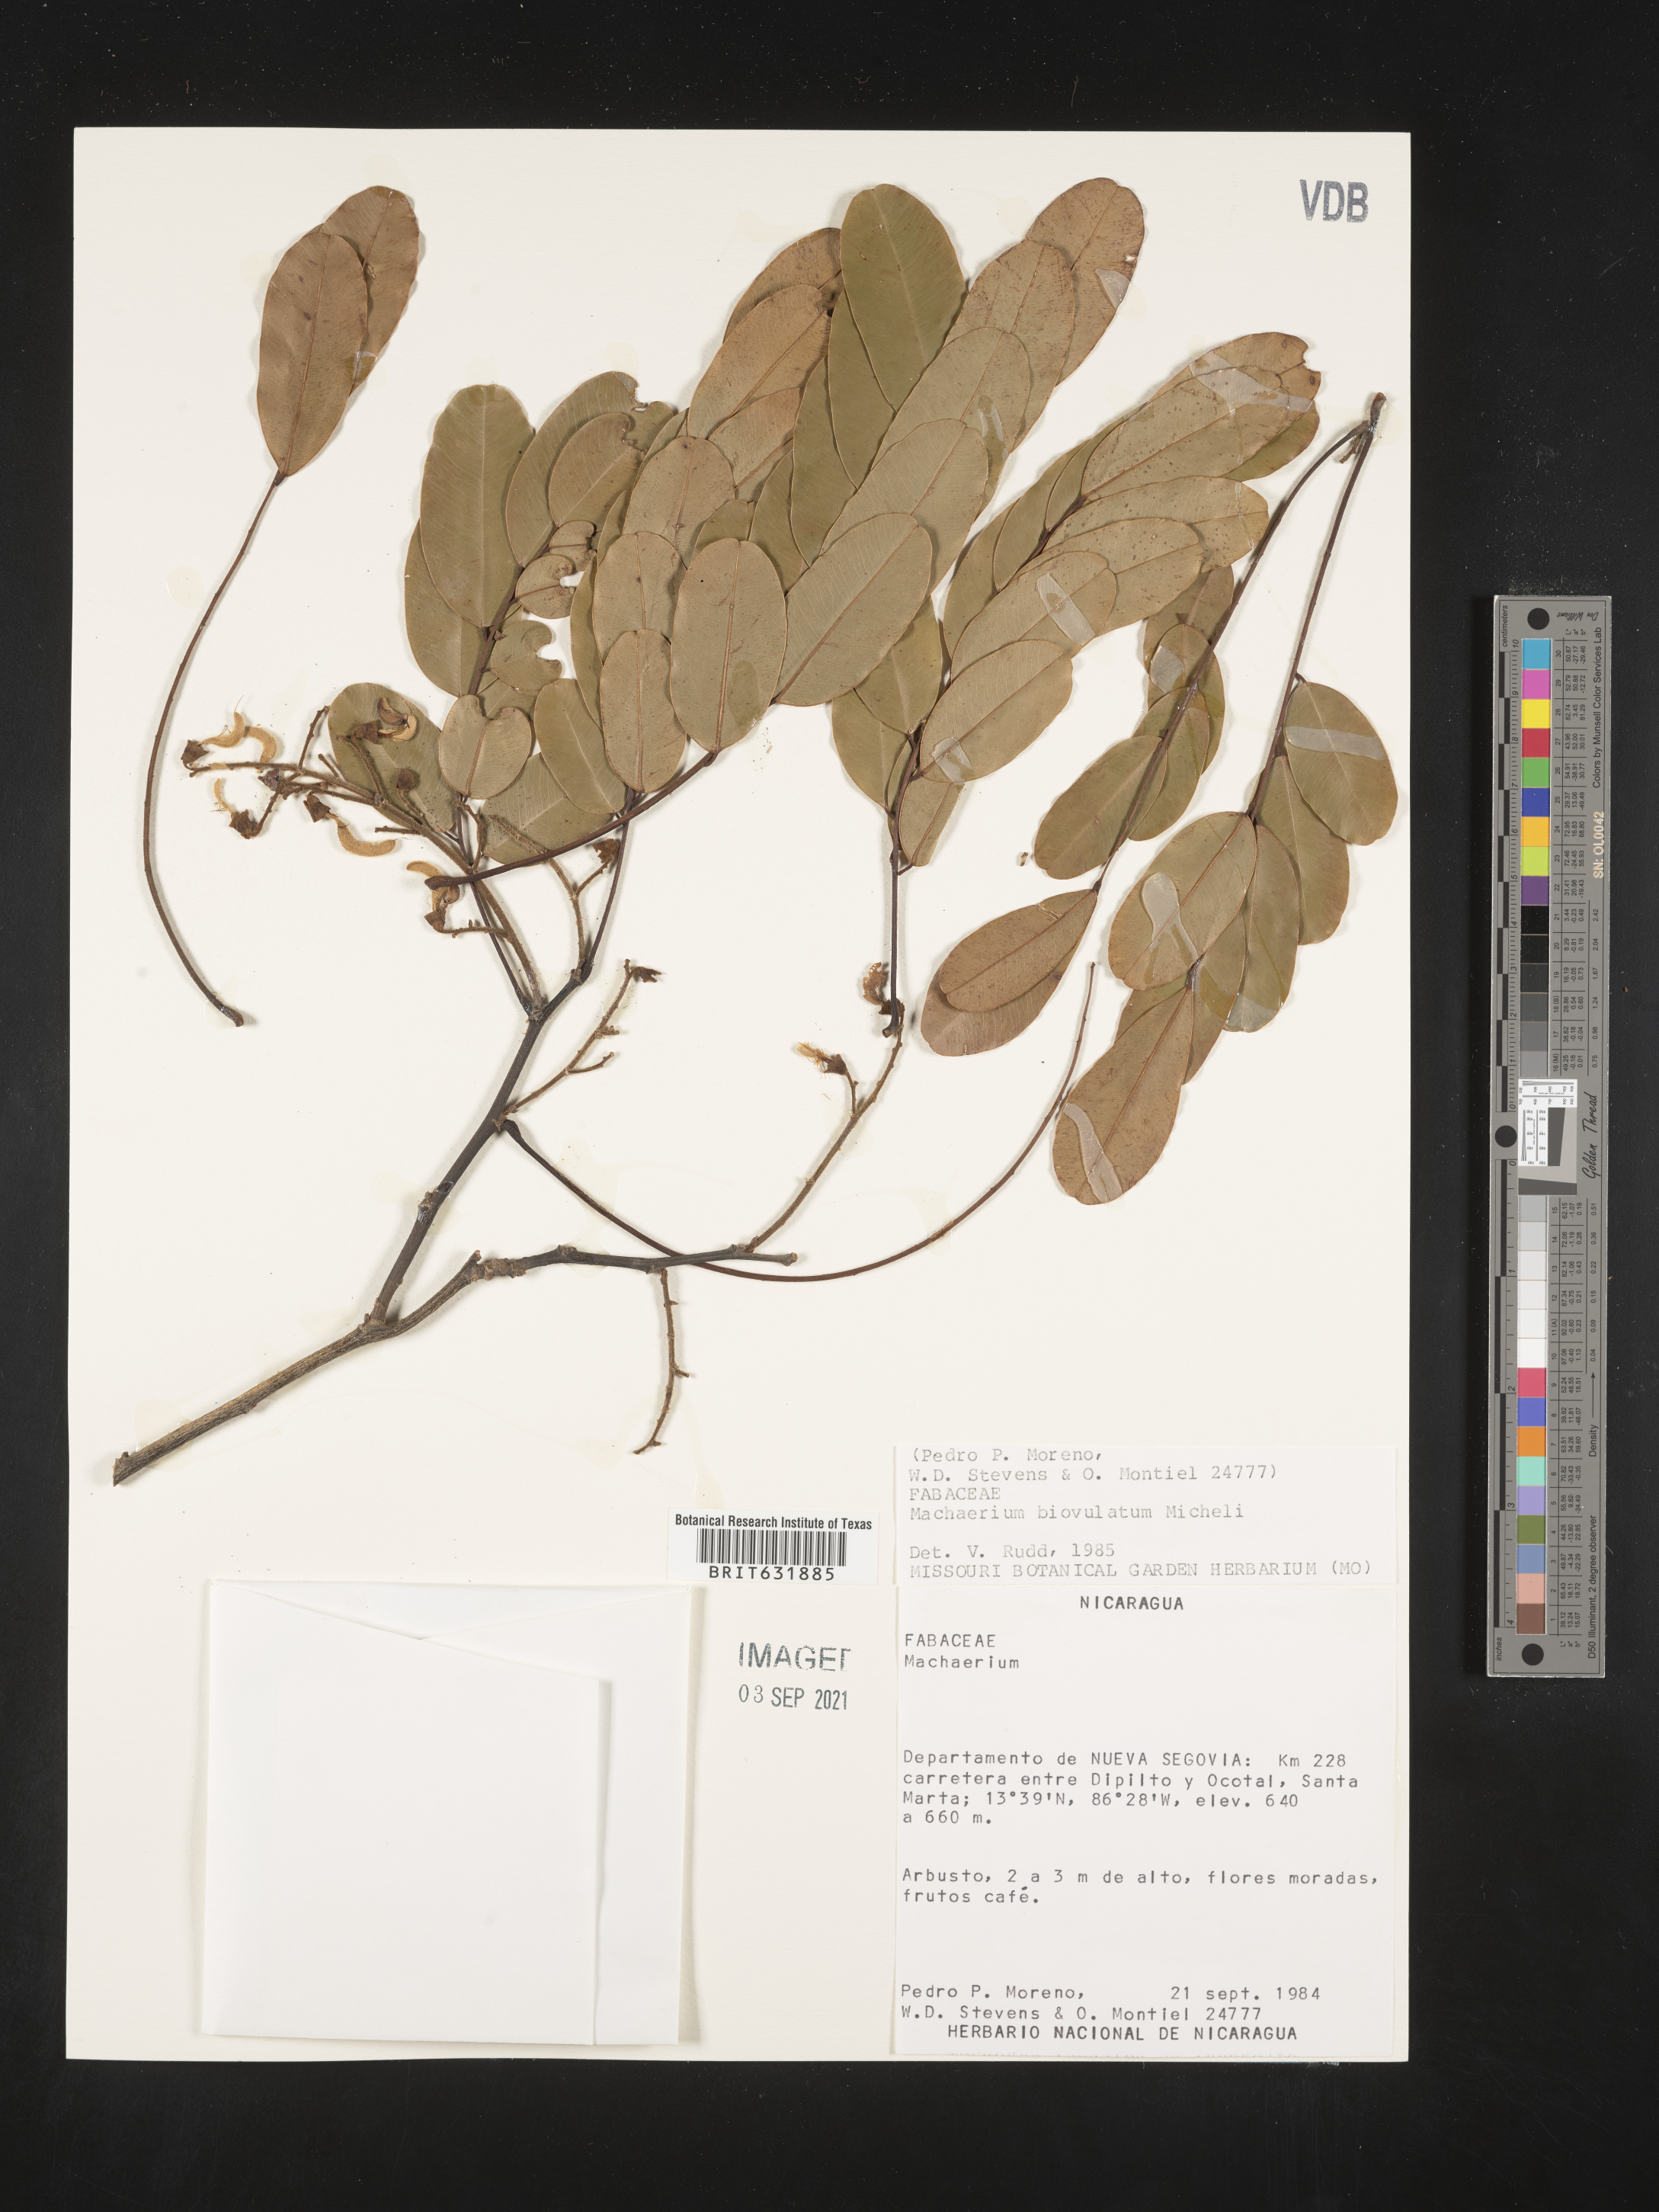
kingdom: Plantae
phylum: Tracheophyta
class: Magnoliopsida
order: Fabales
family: Fabaceae
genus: Machaerium
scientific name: Machaerium
